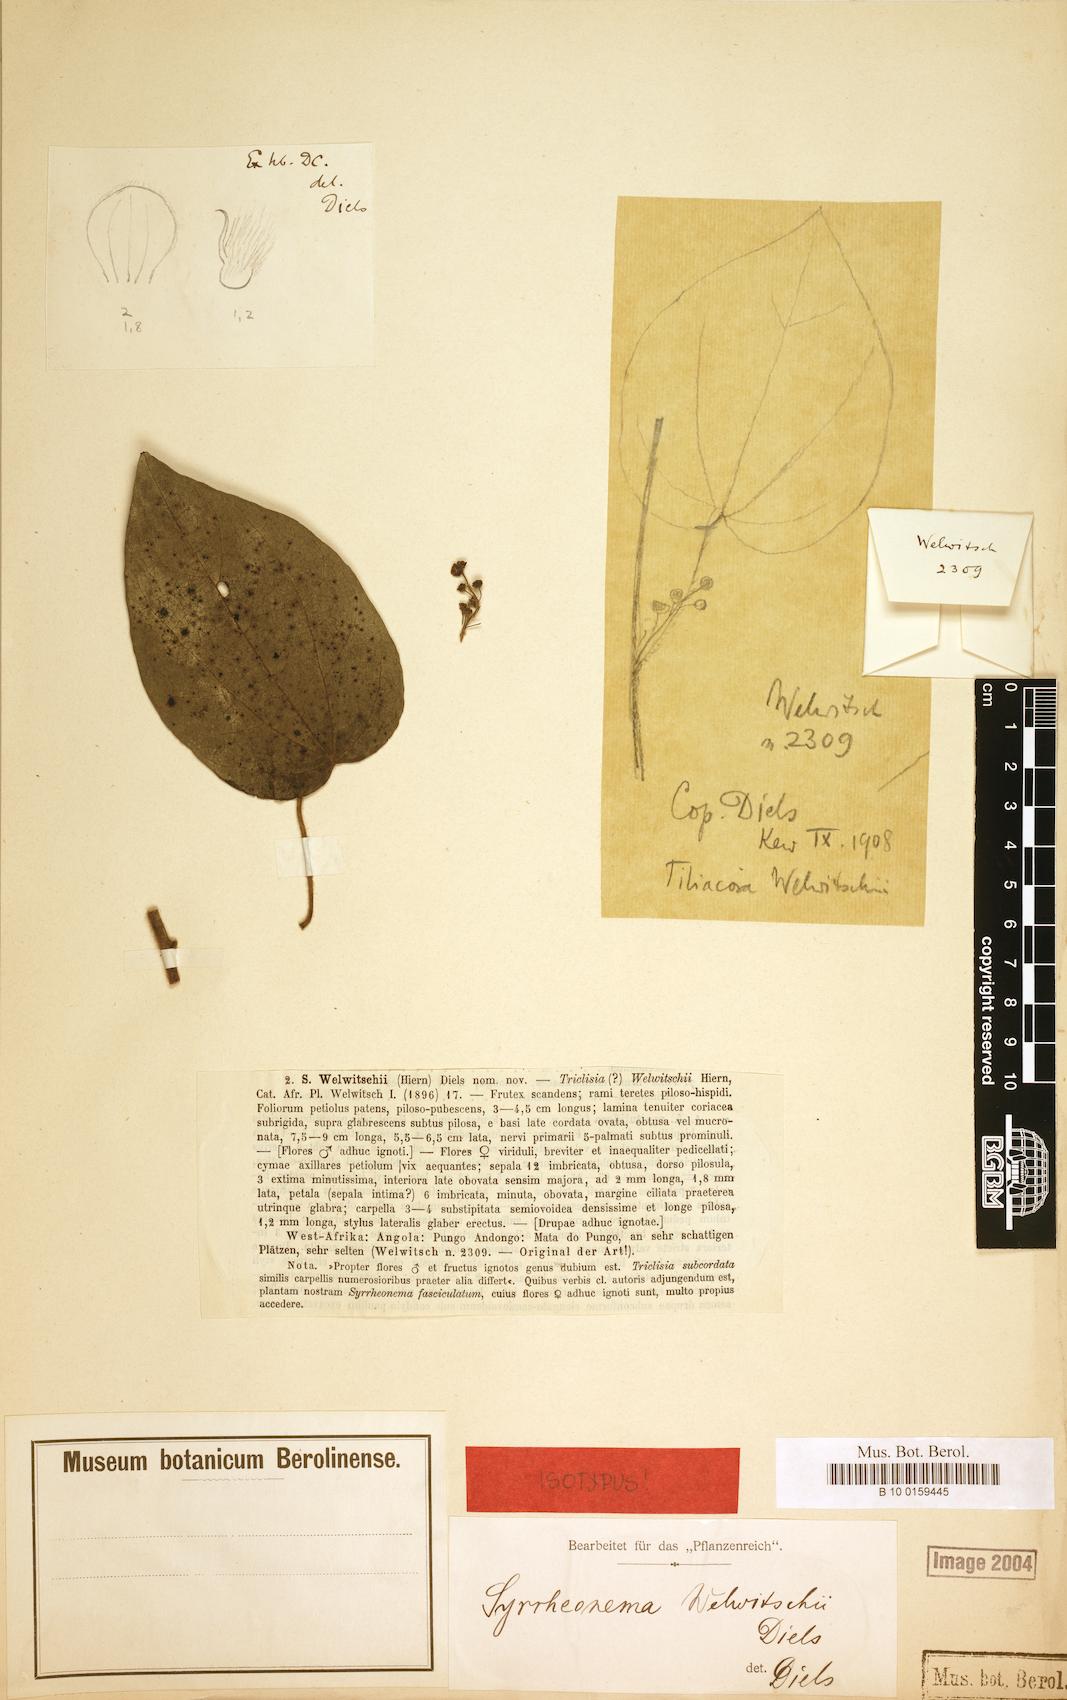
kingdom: Plantae
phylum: Tracheophyta
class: Magnoliopsida
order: Ranunculales
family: Menispermaceae
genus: Syrrheonema
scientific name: Syrrheonema welwitschii
